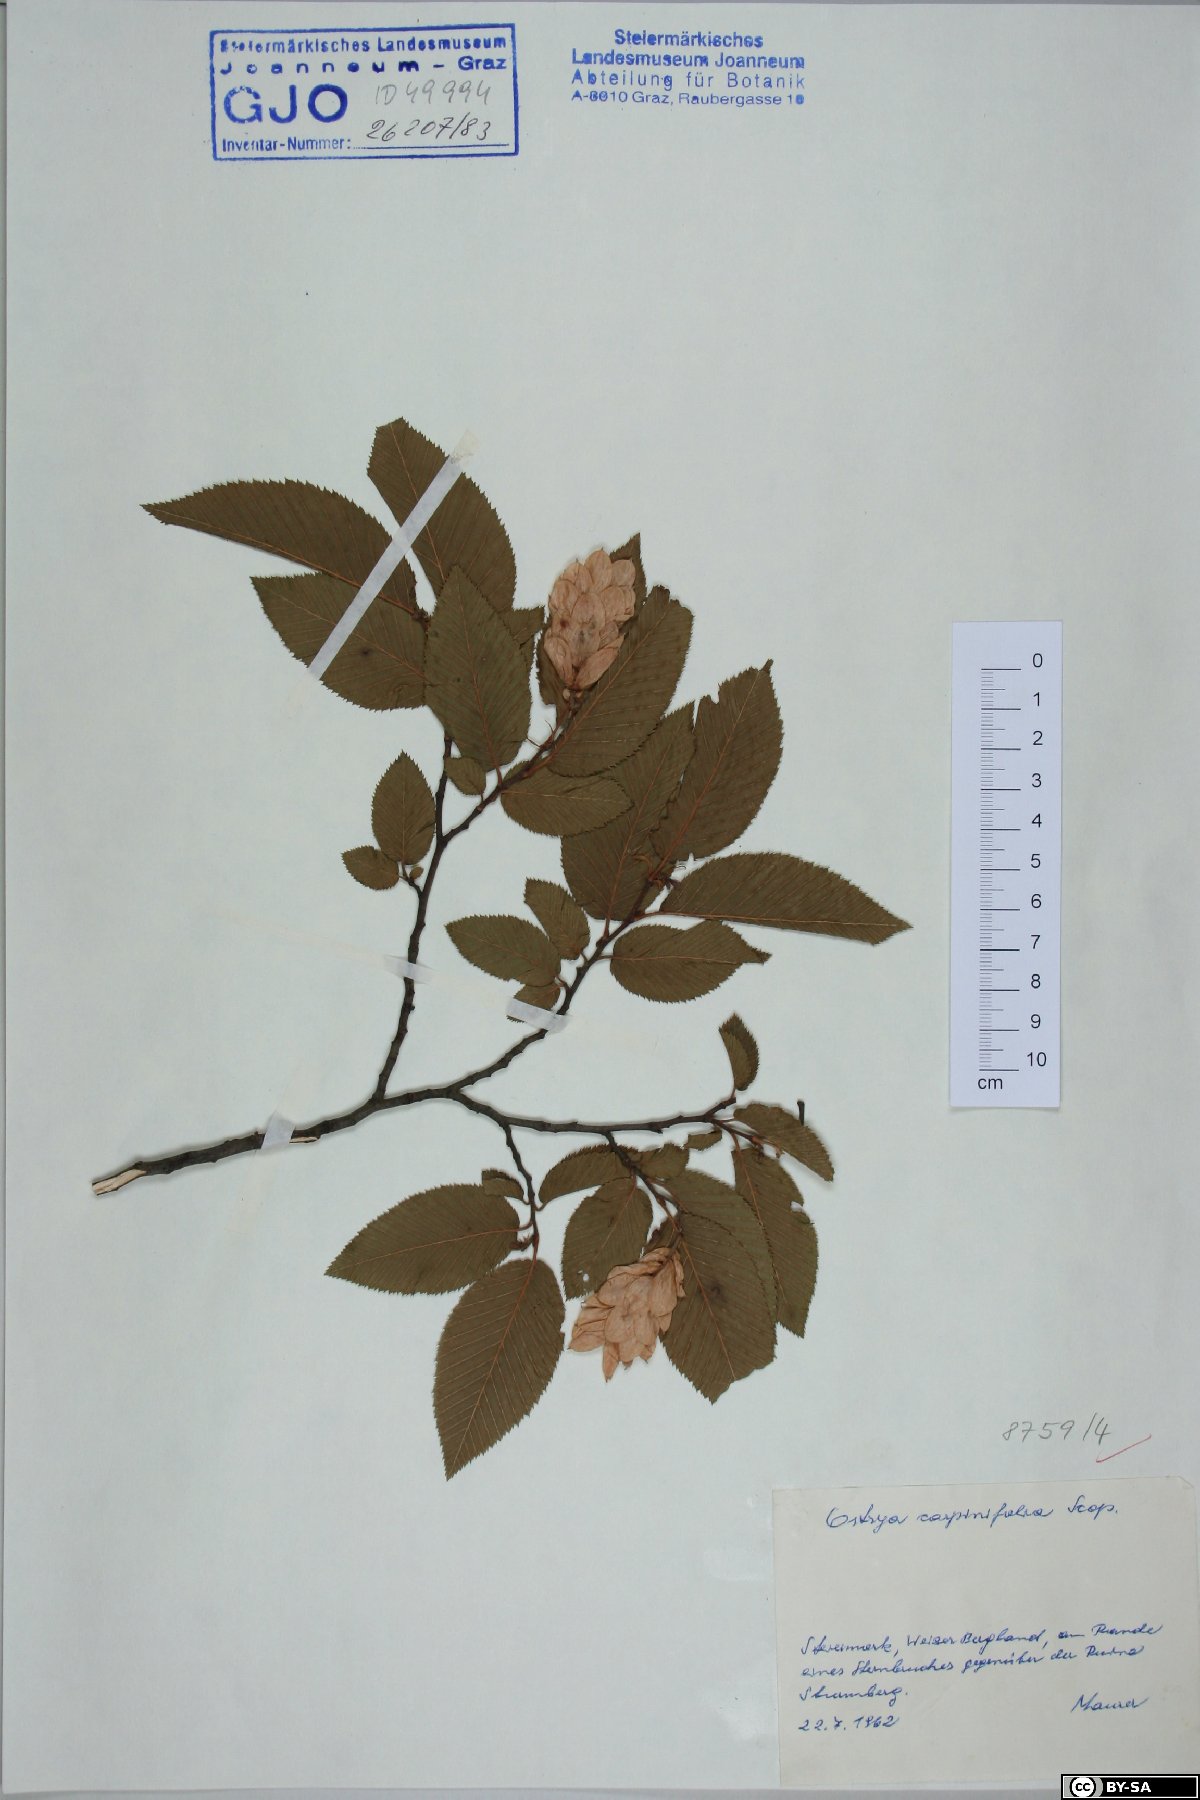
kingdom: Plantae
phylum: Tracheophyta
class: Magnoliopsida
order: Fagales
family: Betulaceae
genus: Ostrya
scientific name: Ostrya carpinifolia
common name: European hop-hornbeam
